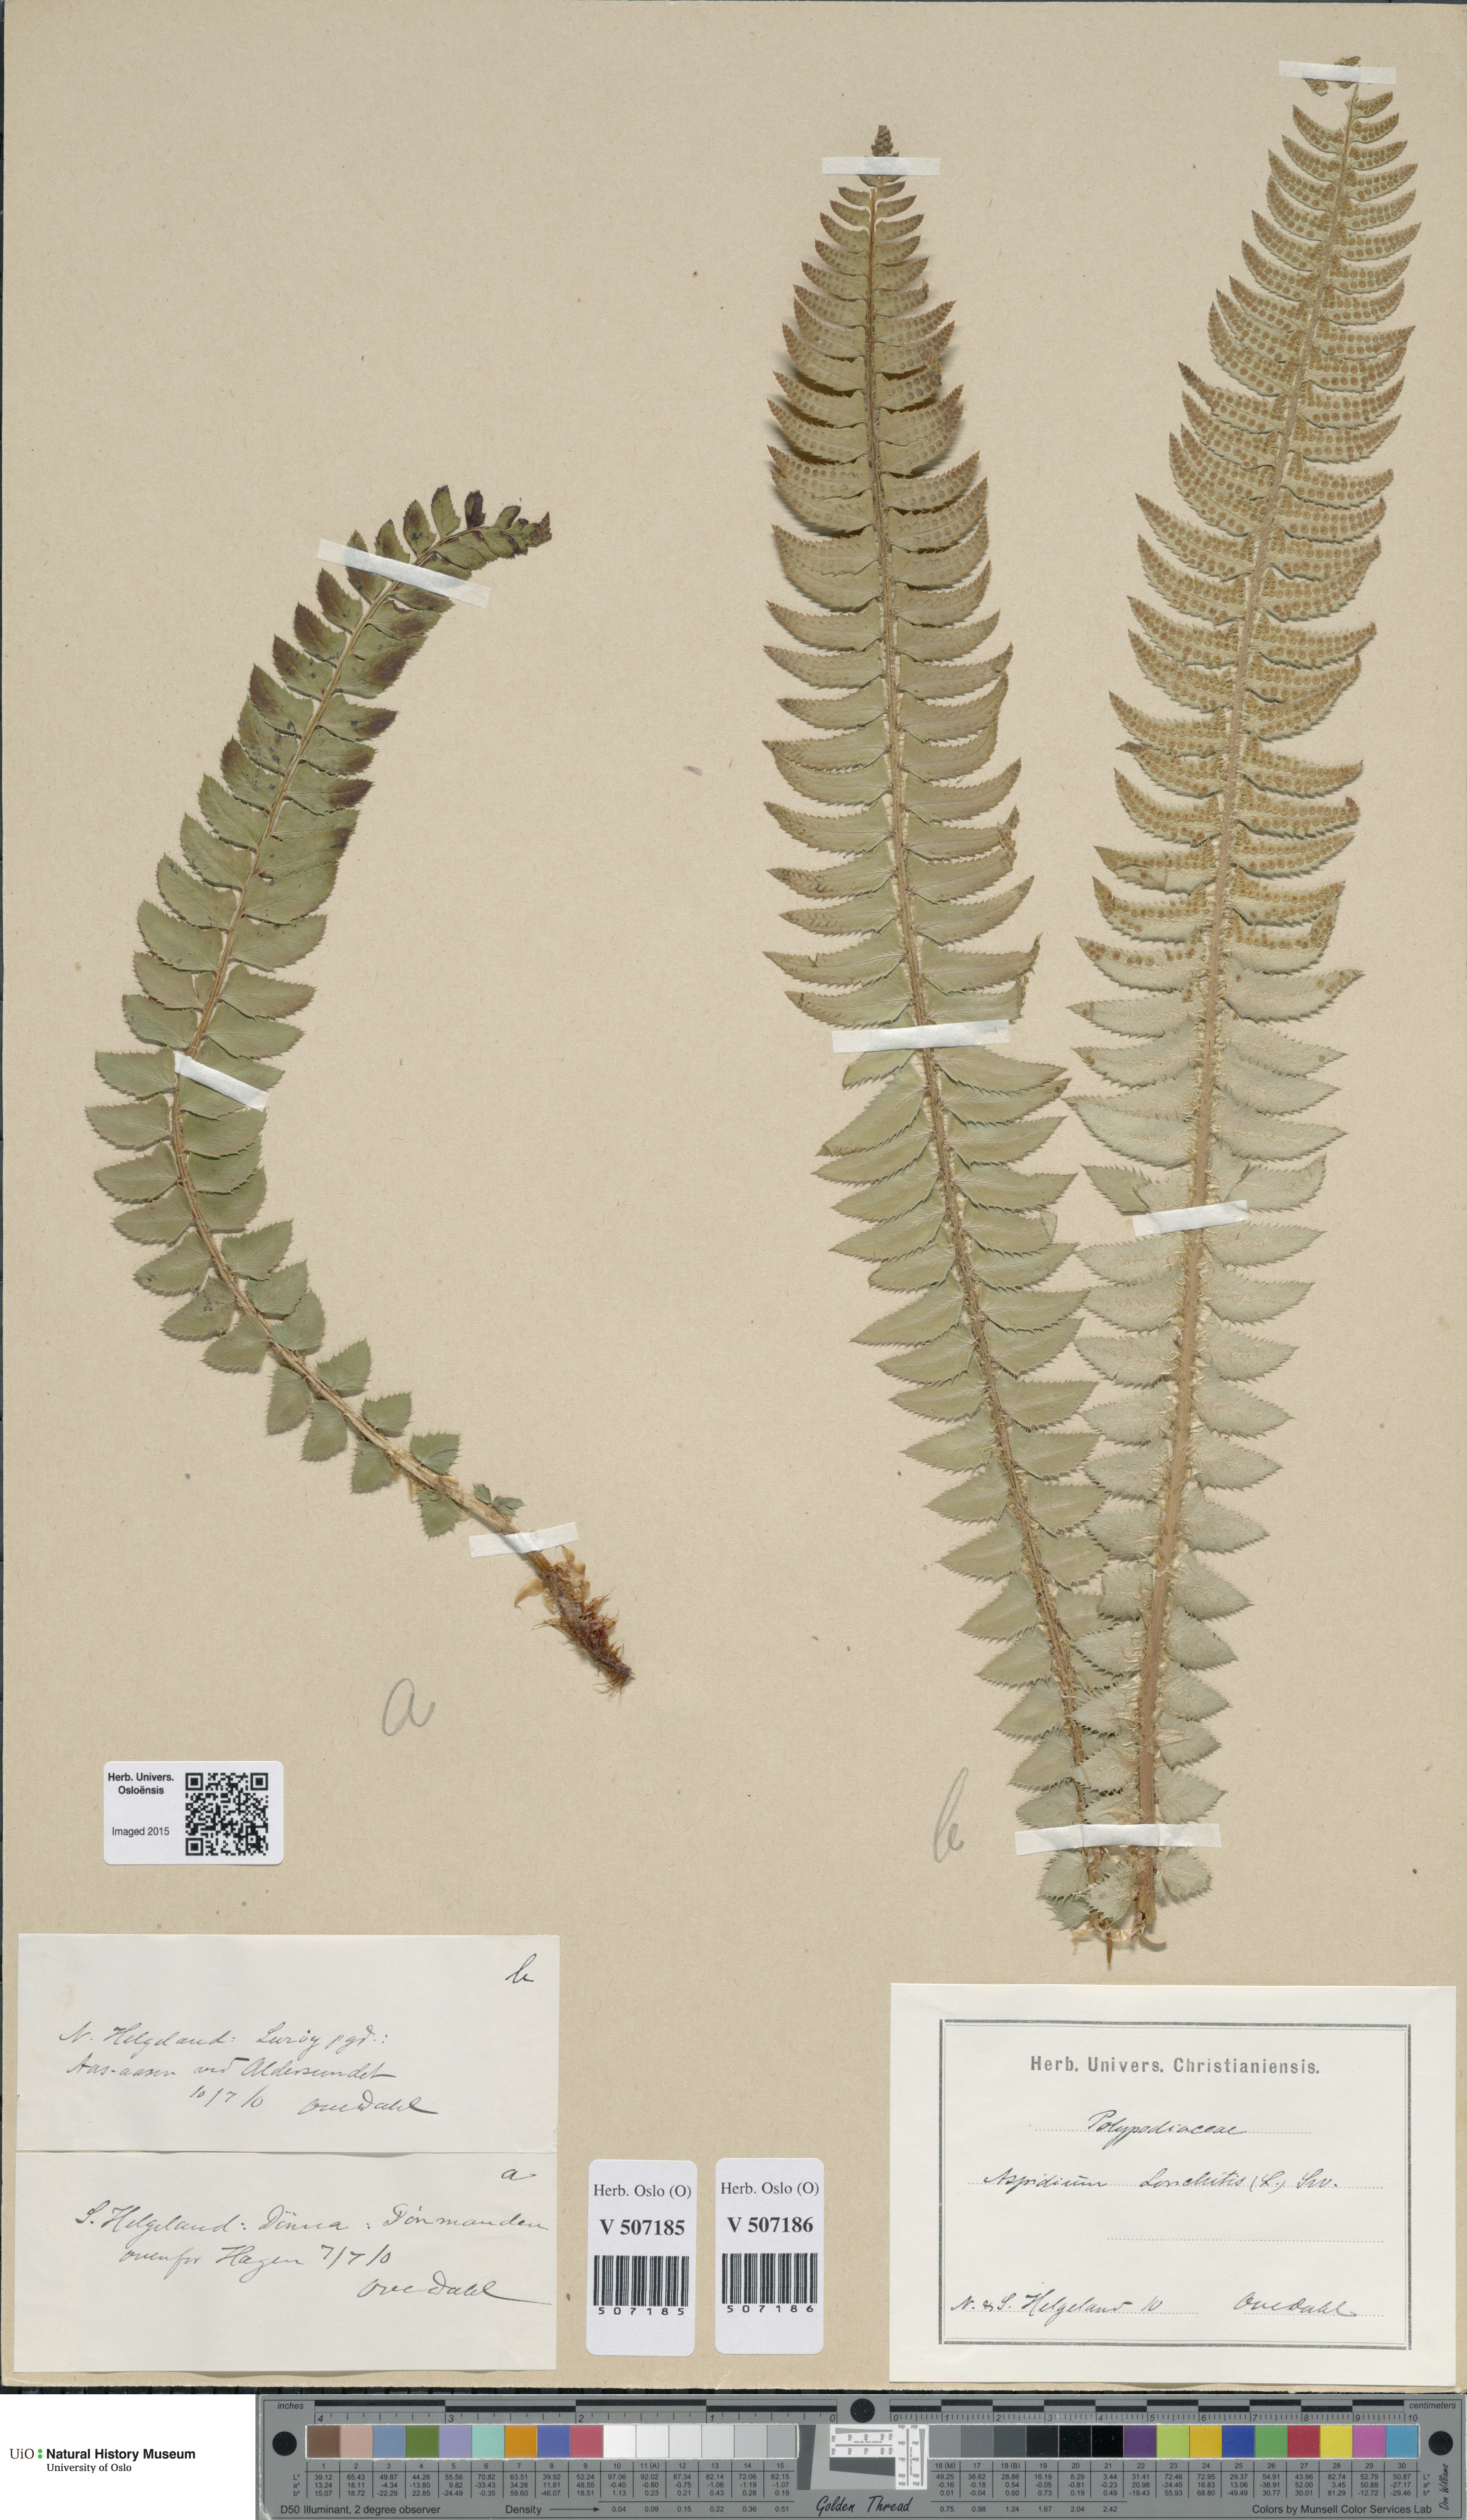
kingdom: Plantae
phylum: Tracheophyta
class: Polypodiopsida
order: Polypodiales
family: Dryopteridaceae
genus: Polystichum
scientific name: Polystichum lonchitis
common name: Holly fern
